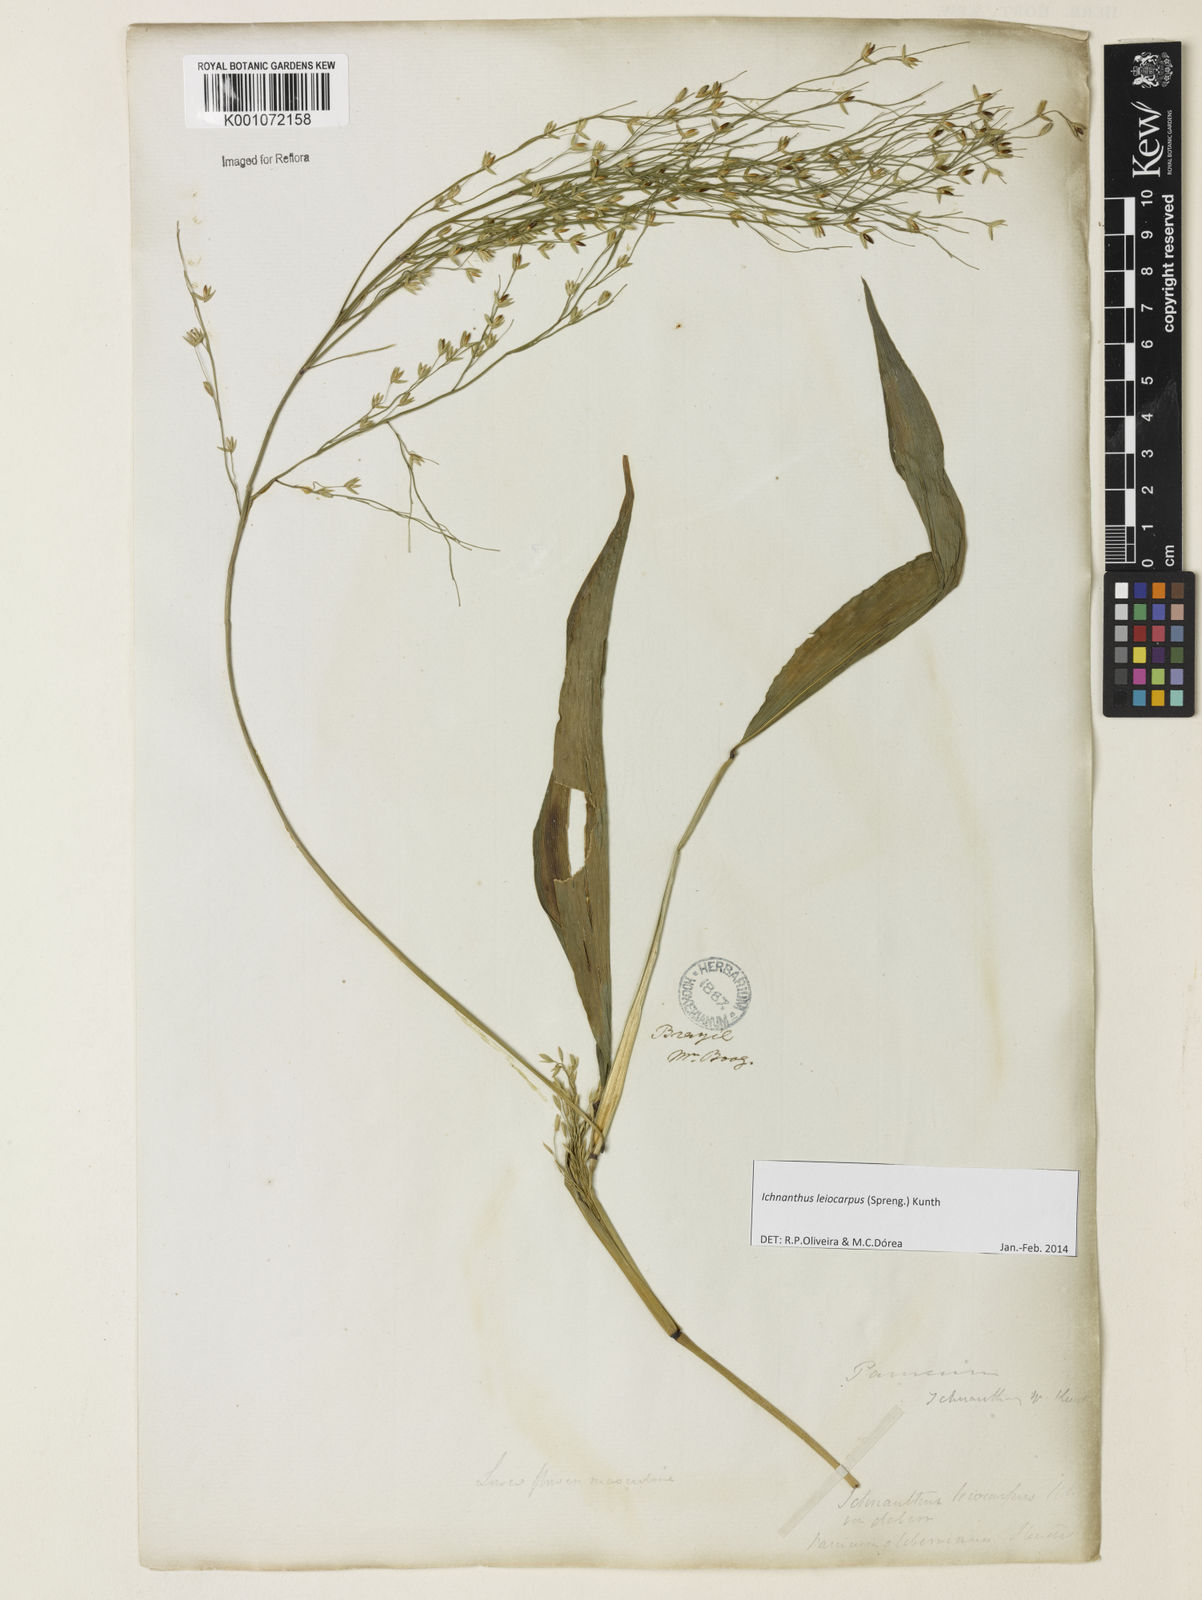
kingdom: Plantae
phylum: Tracheophyta
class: Liliopsida
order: Poales
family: Poaceae
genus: Ichnanthus
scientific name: Ichnanthus leiocarpus
